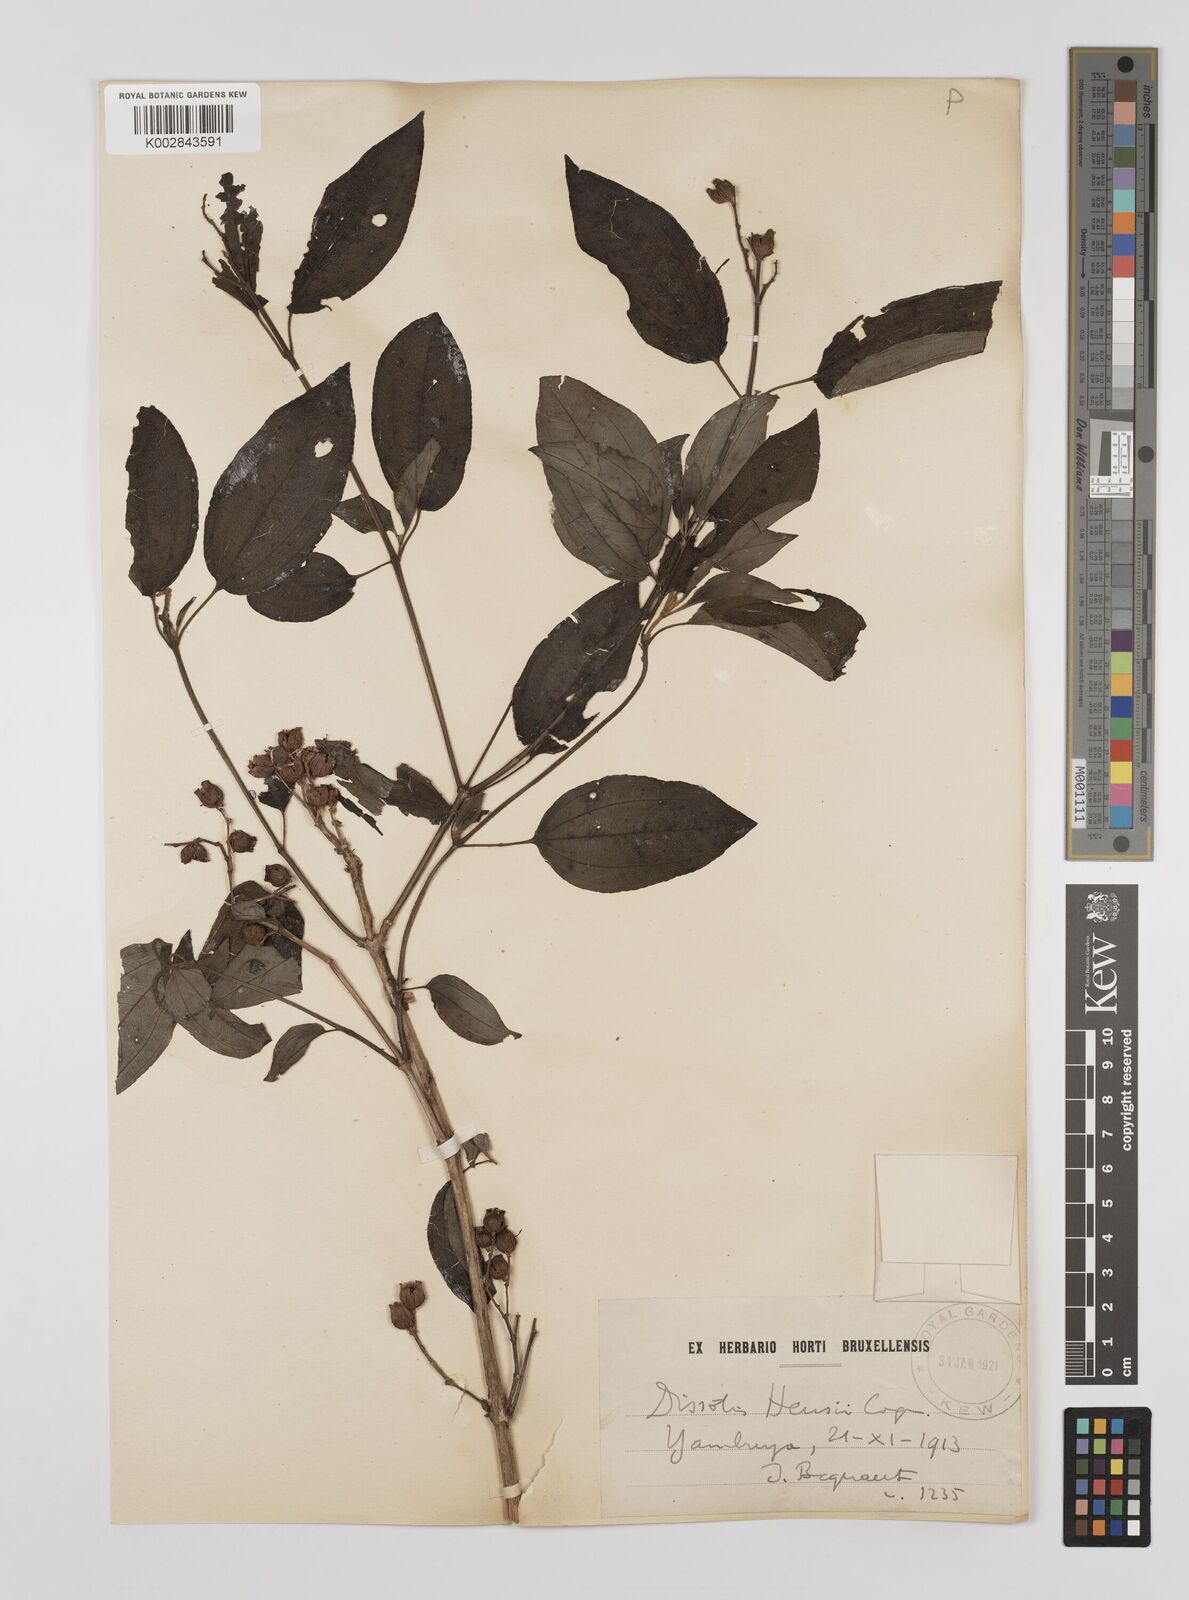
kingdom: Plantae
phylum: Tracheophyta
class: Magnoliopsida
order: Myrtales
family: Melastomataceae
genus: Dupineta
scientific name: Dupineta hensii
